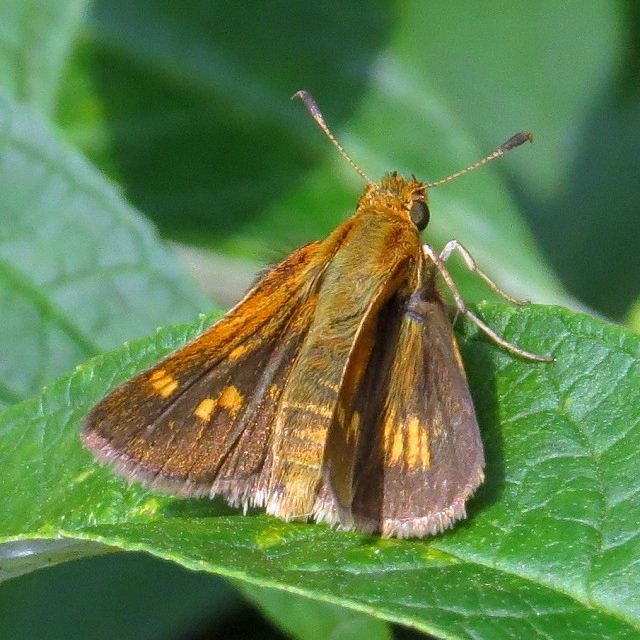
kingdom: Animalia
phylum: Arthropoda
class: Insecta
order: Lepidoptera
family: Hesperiidae
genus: Polites
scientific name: Polites coras
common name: Peck's Skipper
